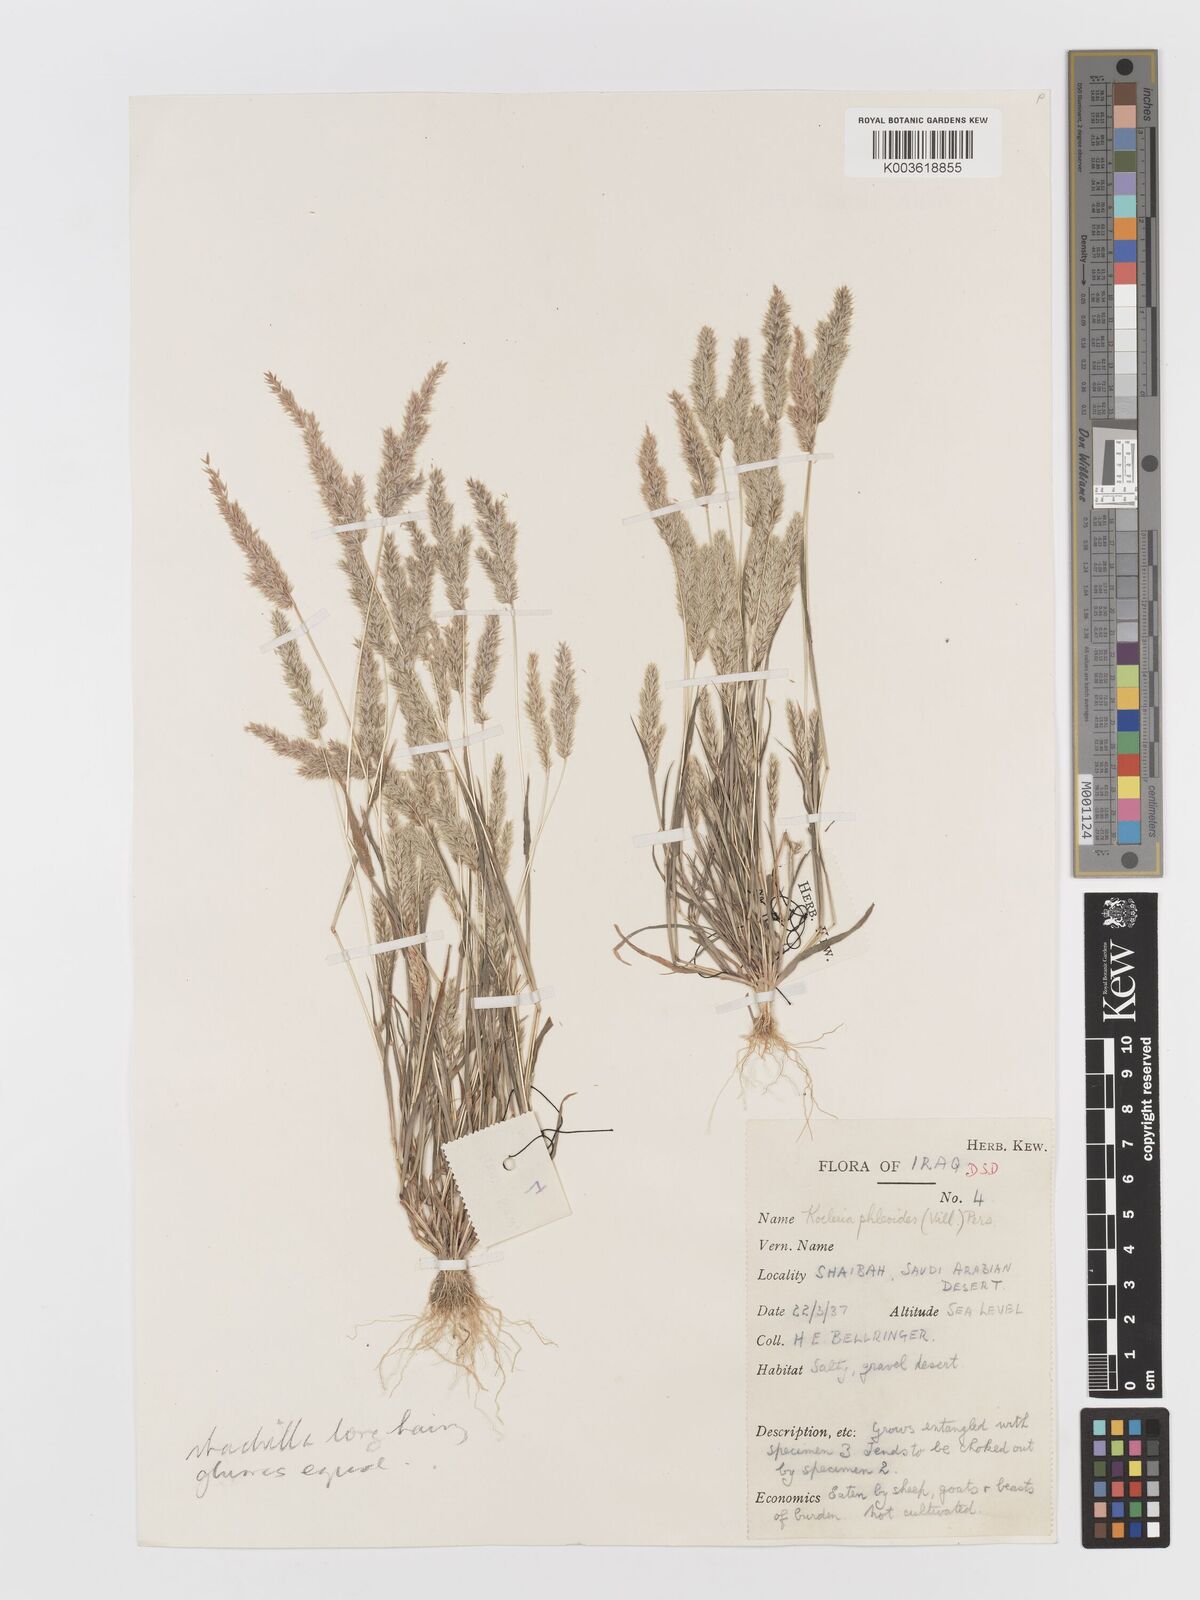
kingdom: Plantae
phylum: Tracheophyta
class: Liliopsida
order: Poales
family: Poaceae
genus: Rostraria
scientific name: Rostraria cristata
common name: Mediterranean hair-grass
